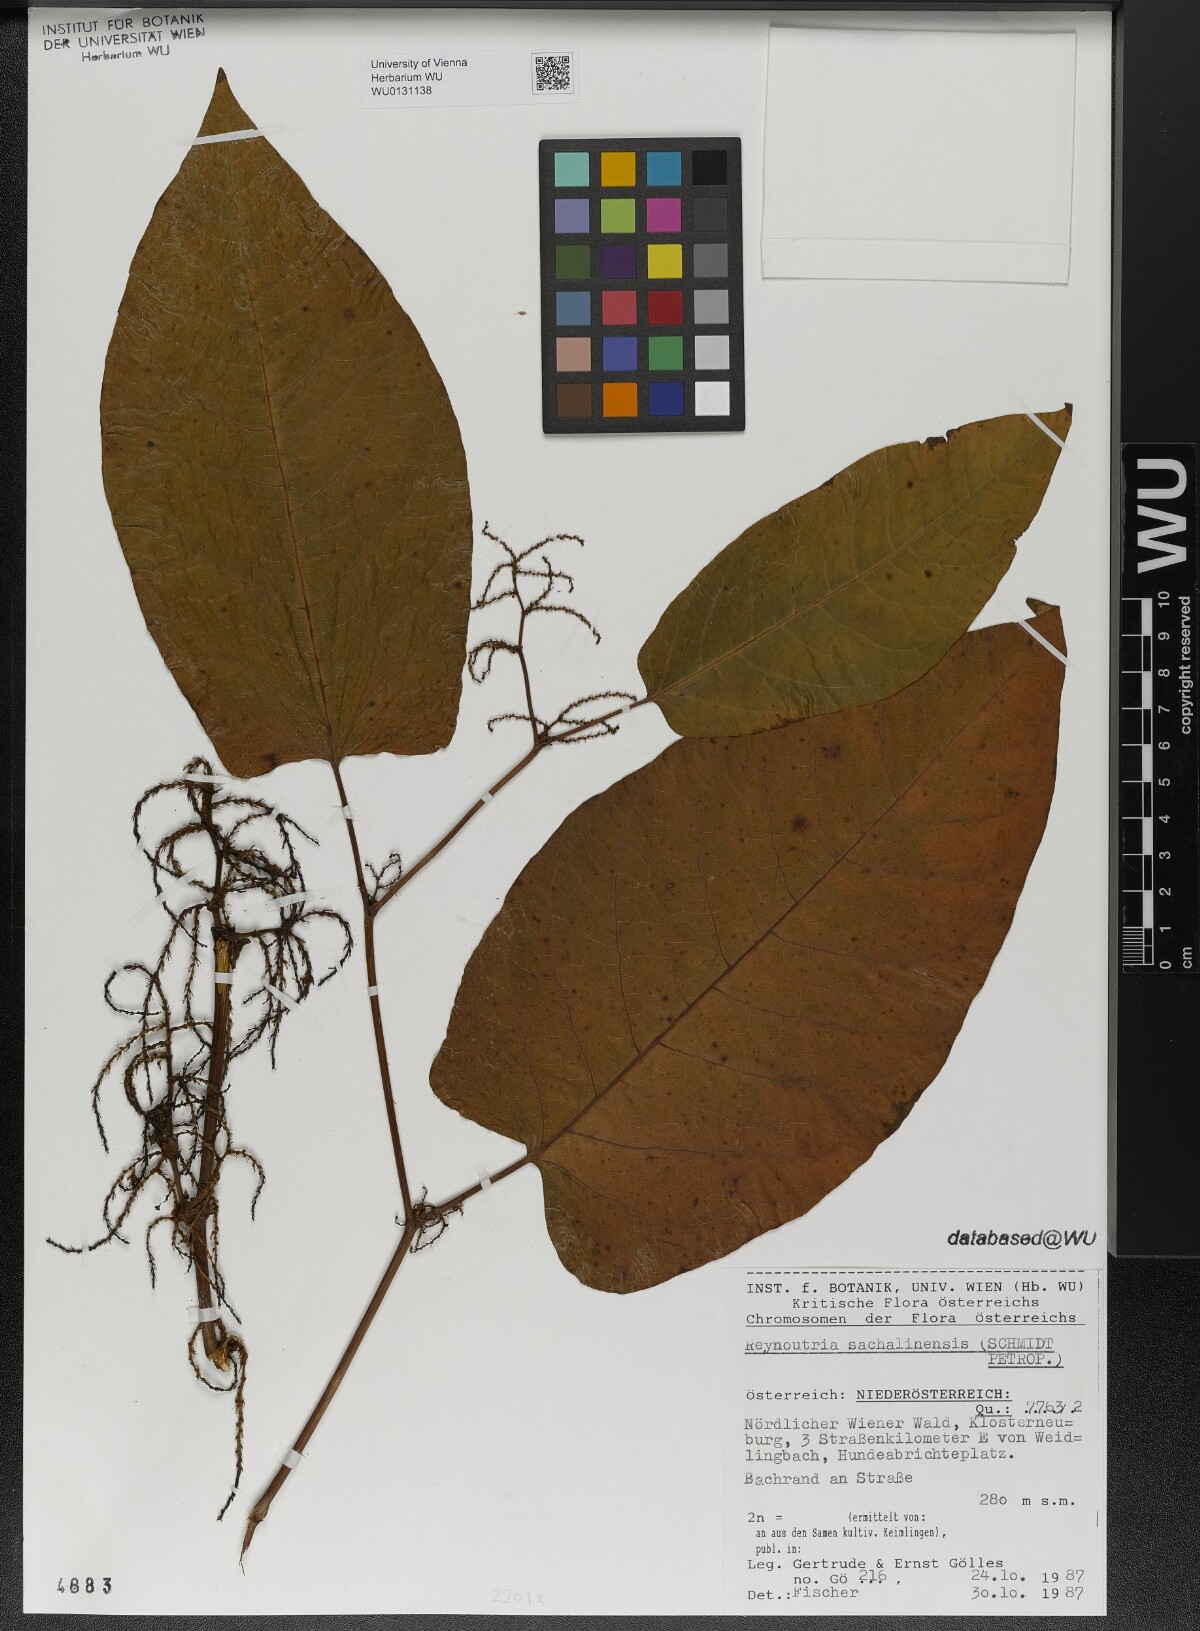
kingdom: Plantae
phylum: Tracheophyta
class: Magnoliopsida
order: Caryophyllales
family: Polygonaceae
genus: Reynoutria
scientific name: Reynoutria sachalinensis
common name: Giant knotweed
